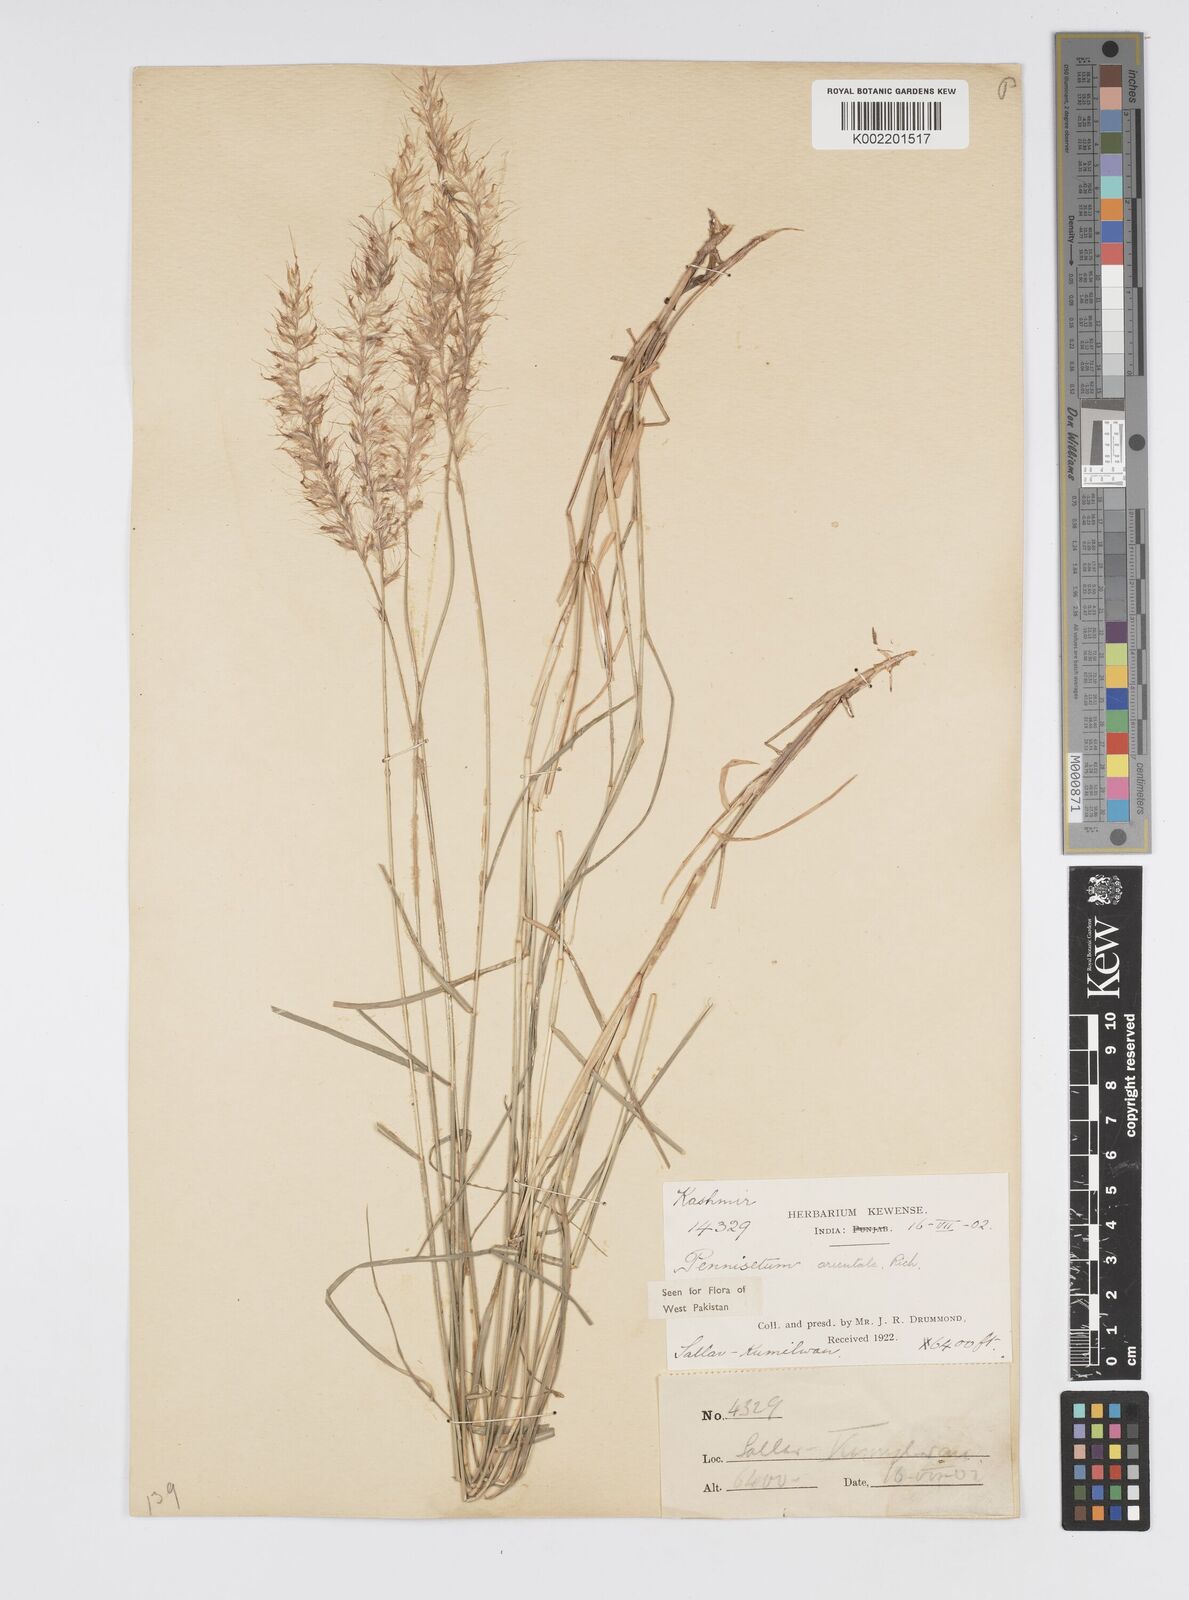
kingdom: Plantae
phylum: Tracheophyta
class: Liliopsida
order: Poales
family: Poaceae
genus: Cenchrus
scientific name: Cenchrus orientalis
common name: Oriental fountain grass
